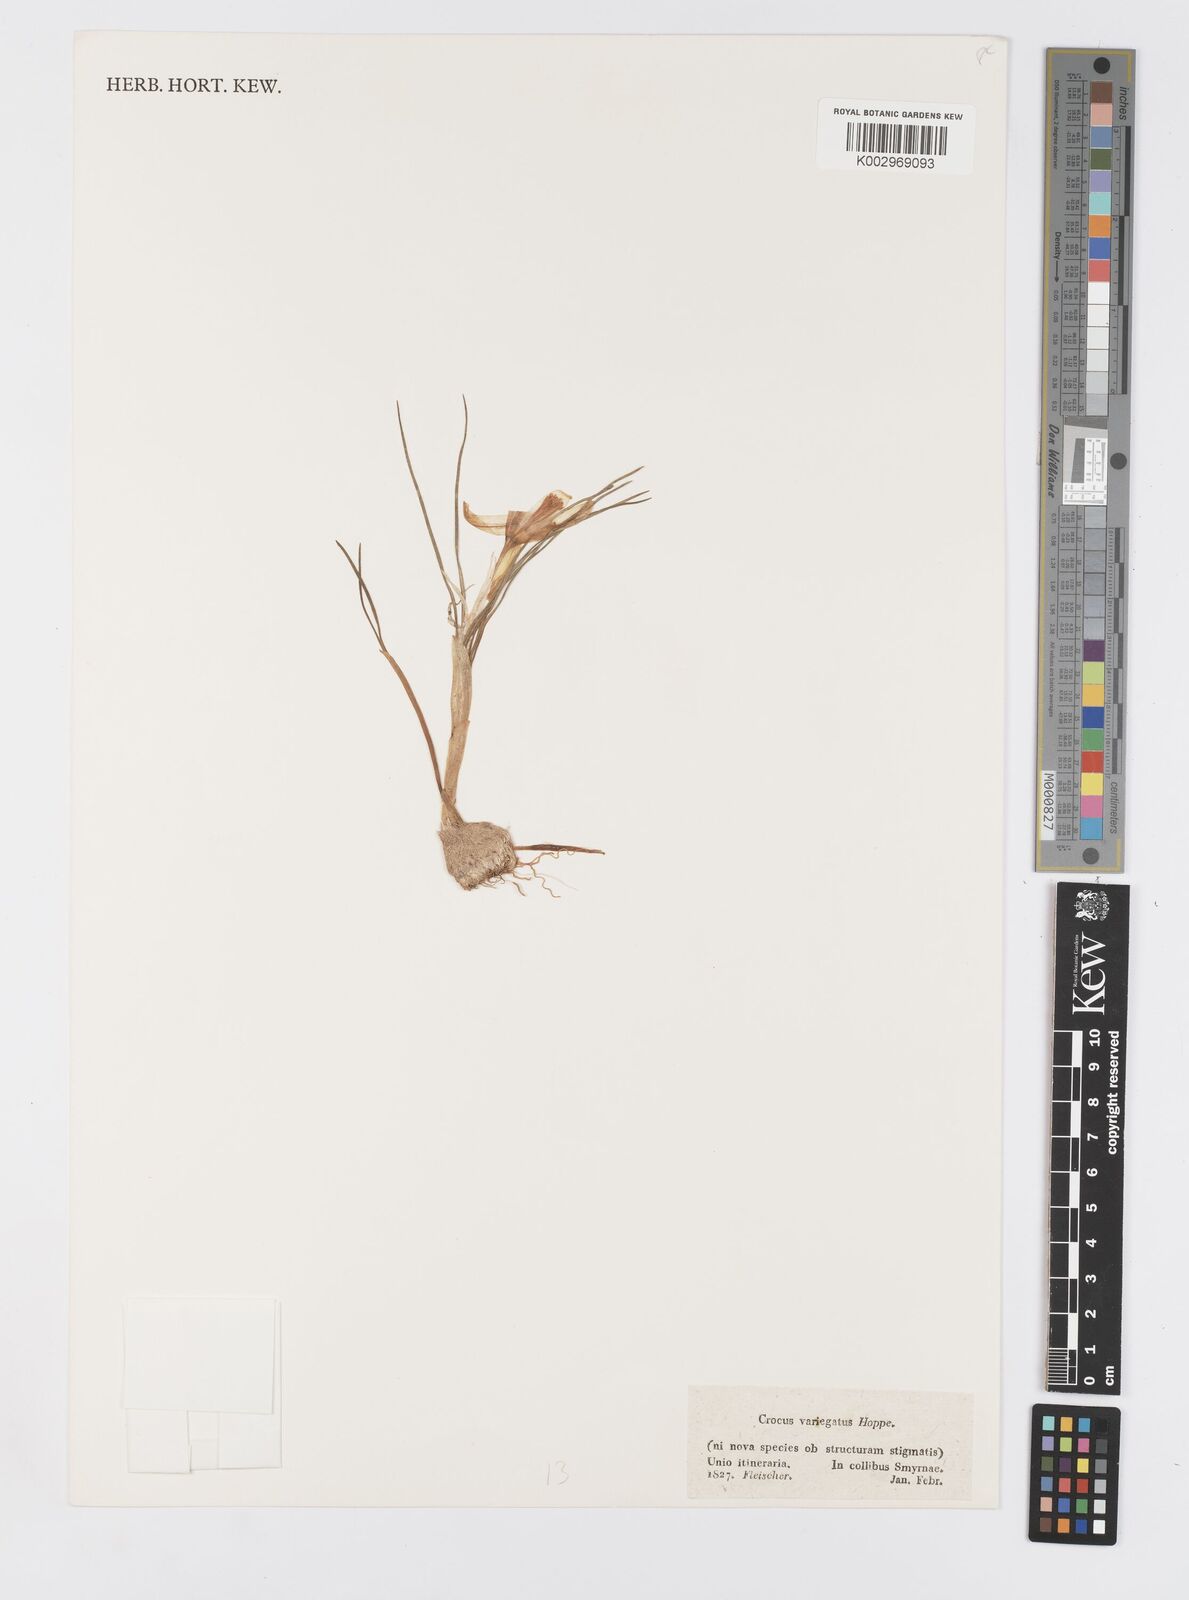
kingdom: Plantae
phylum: Tracheophyta
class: Liliopsida
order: Asparagales
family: Iridaceae
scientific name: Iridaceae
